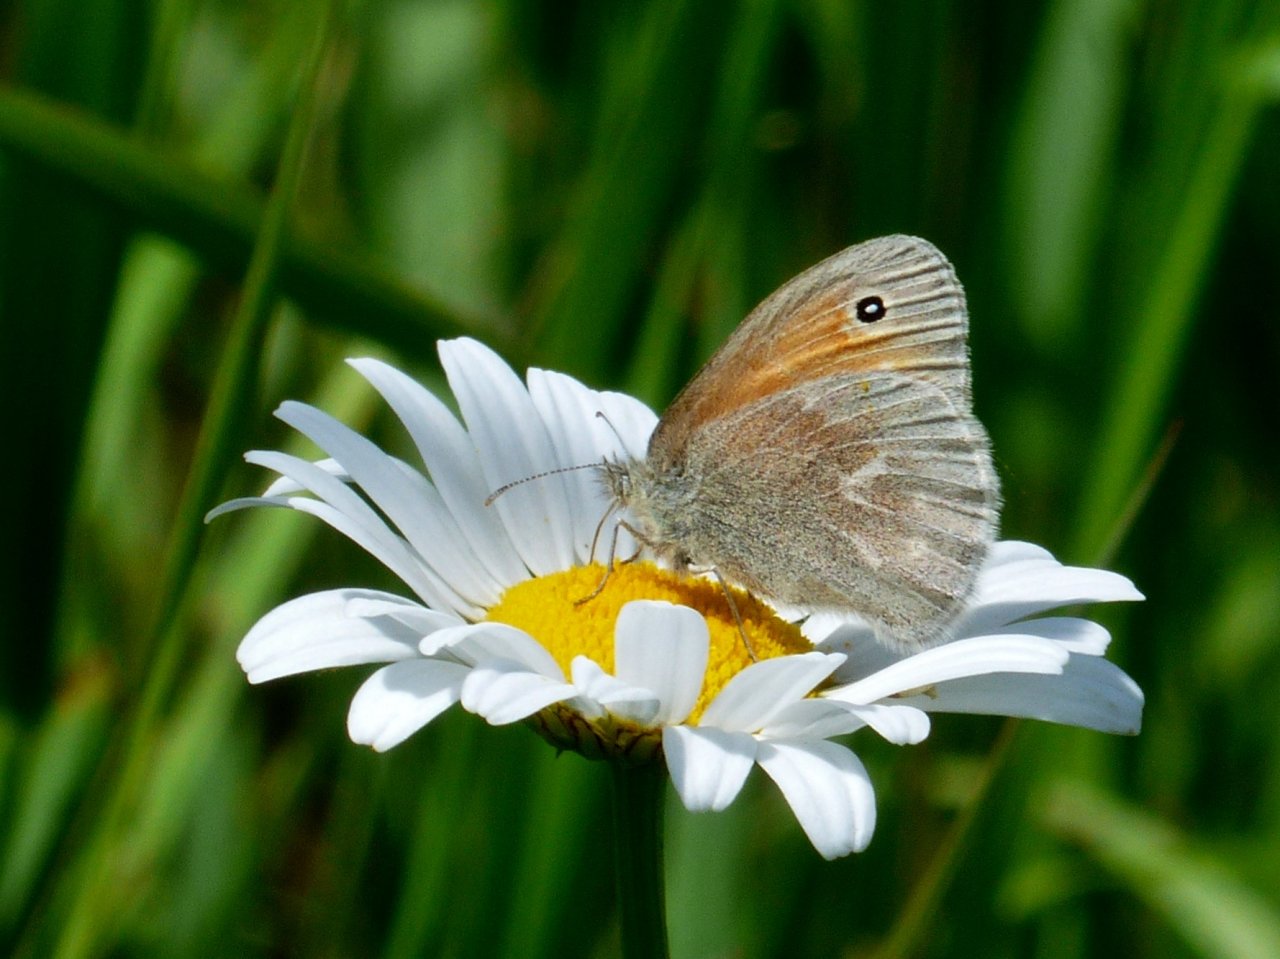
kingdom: Animalia
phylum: Arthropoda
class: Insecta
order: Lepidoptera
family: Nymphalidae
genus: Coenonympha
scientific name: Coenonympha tullia
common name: Large Heath
